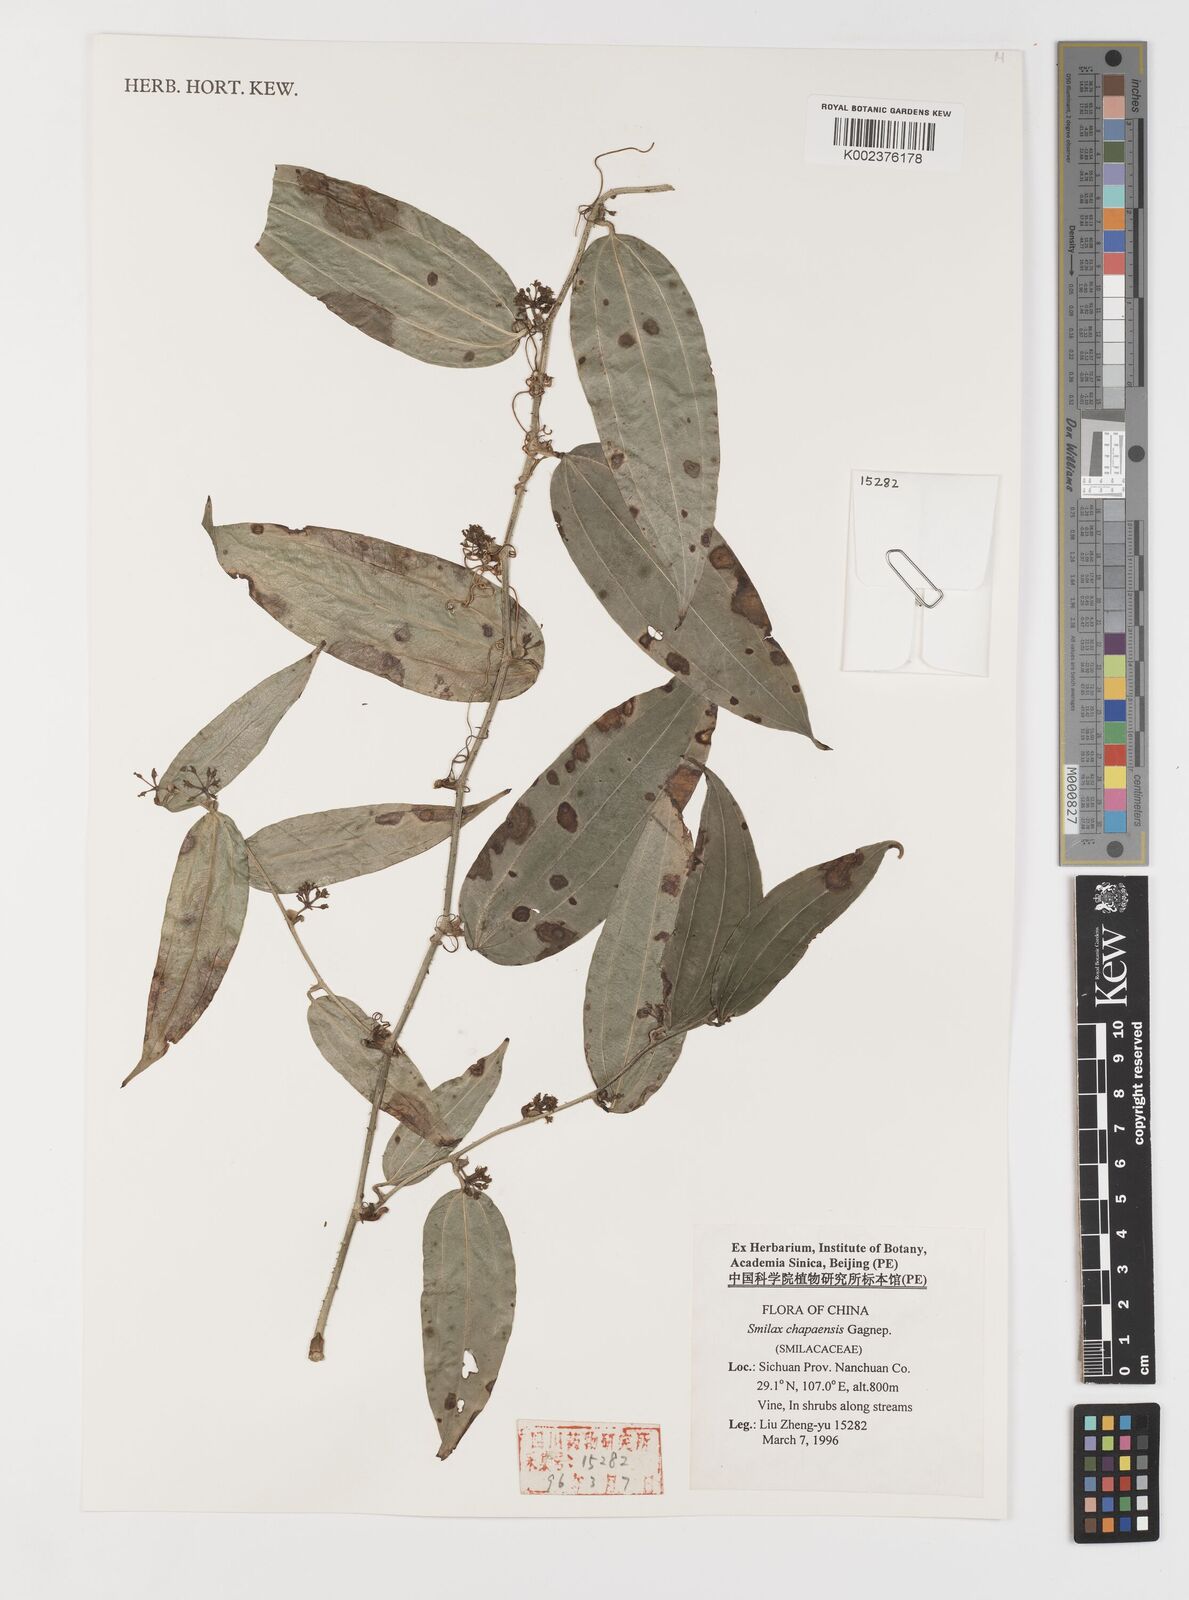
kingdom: Plantae
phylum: Tracheophyta
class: Liliopsida
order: Liliales
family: Smilacaceae
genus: Smilax
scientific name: Smilax chapaensis
